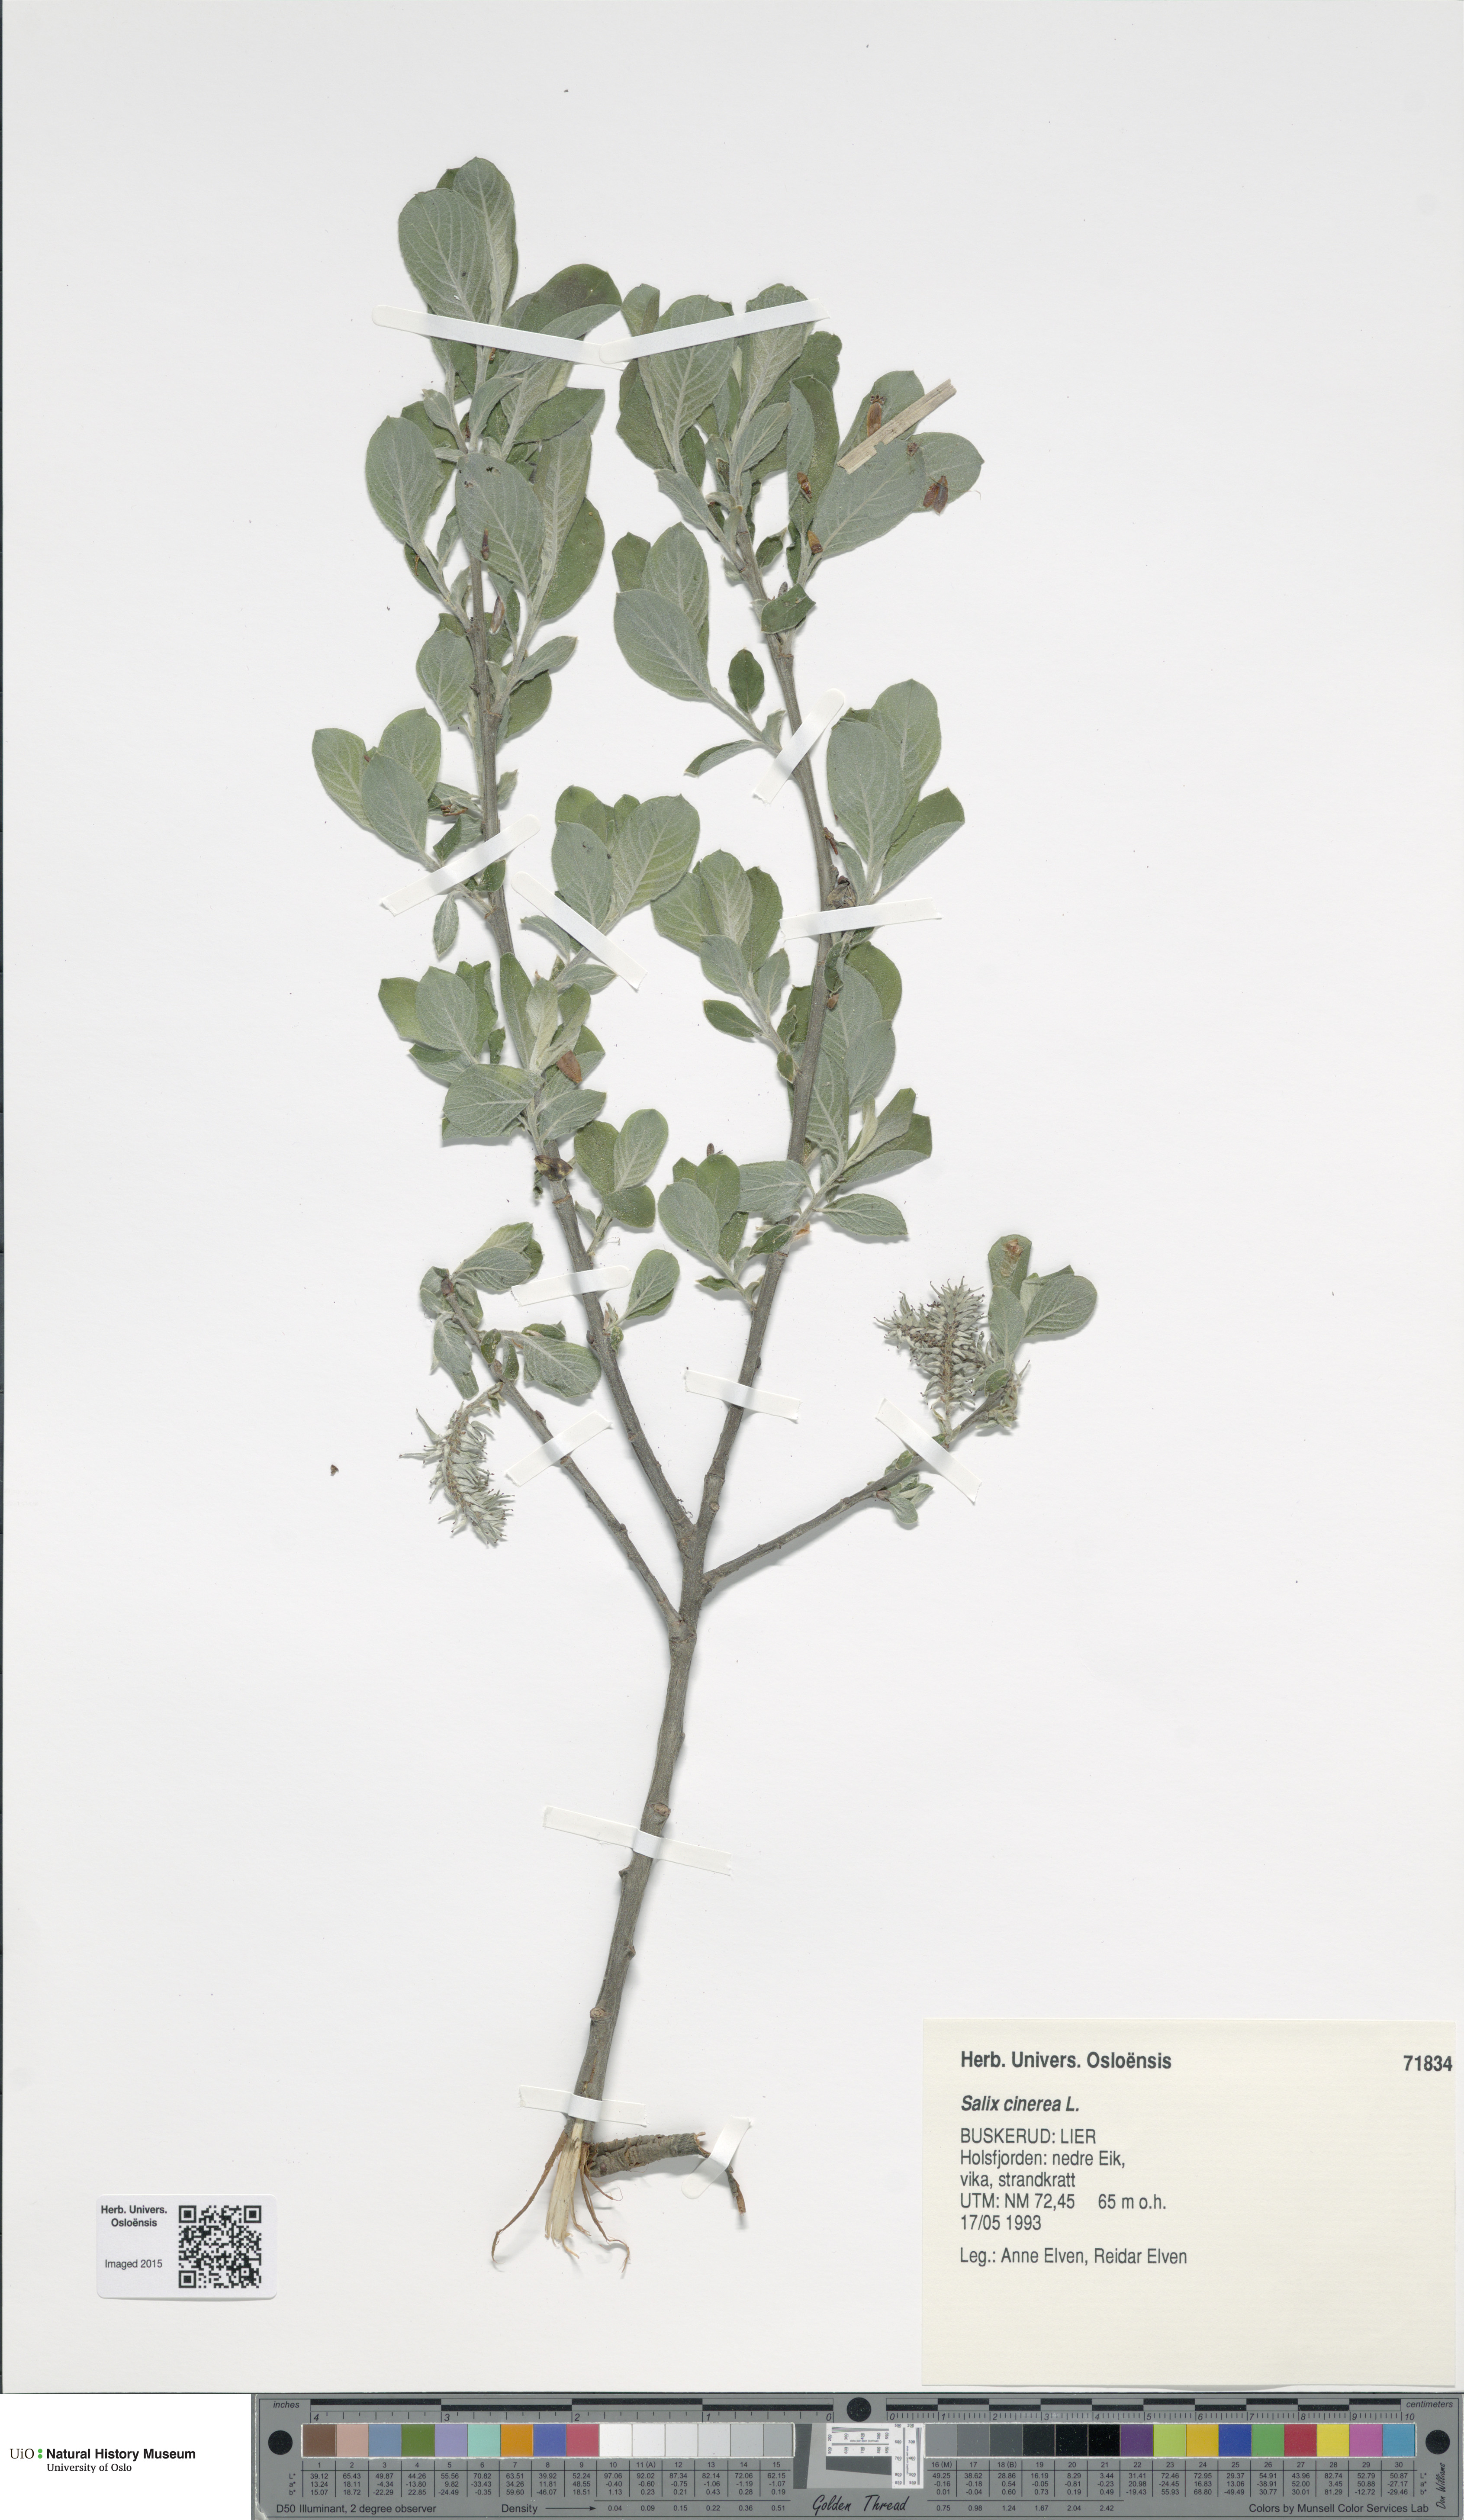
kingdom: Plantae
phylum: Tracheophyta
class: Magnoliopsida
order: Malpighiales
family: Salicaceae
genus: Salix
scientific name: Salix cinerea
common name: Common sallow
